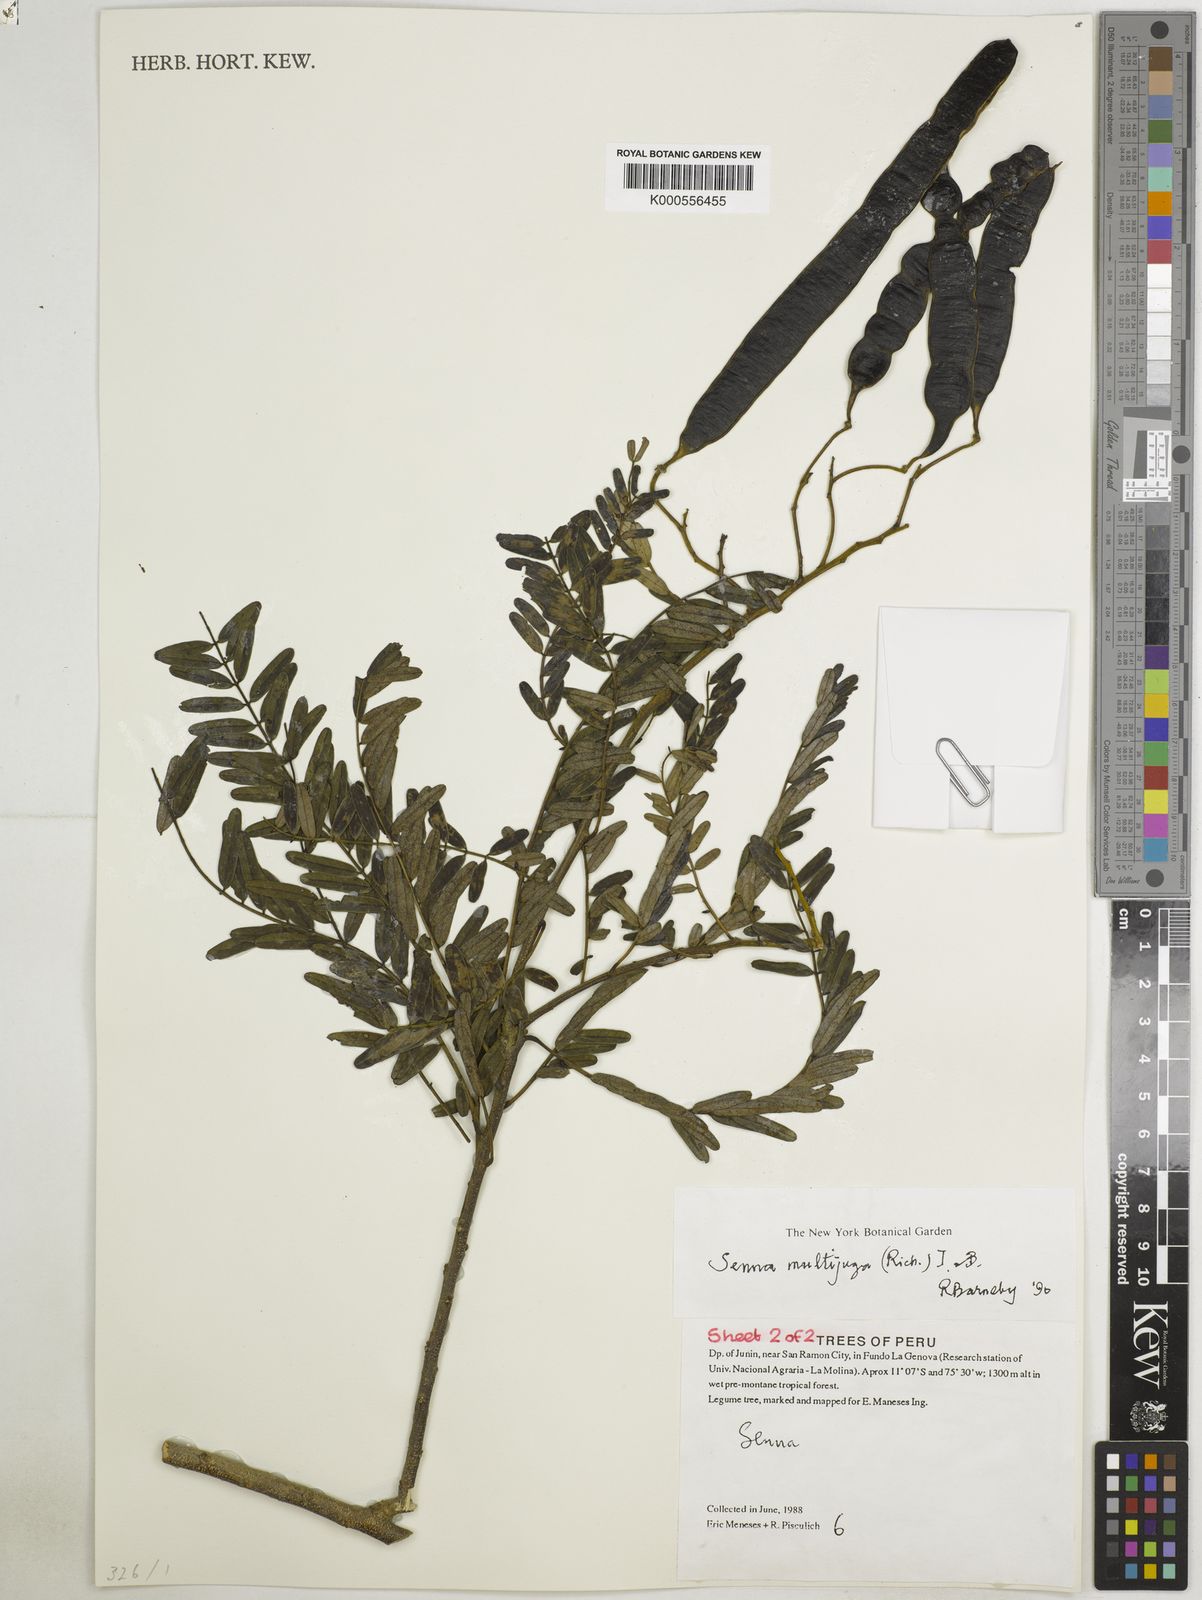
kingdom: Plantae
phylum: Tracheophyta
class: Magnoliopsida
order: Fabales
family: Fabaceae
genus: Senna
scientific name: Senna multijuga
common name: False sicklepod
